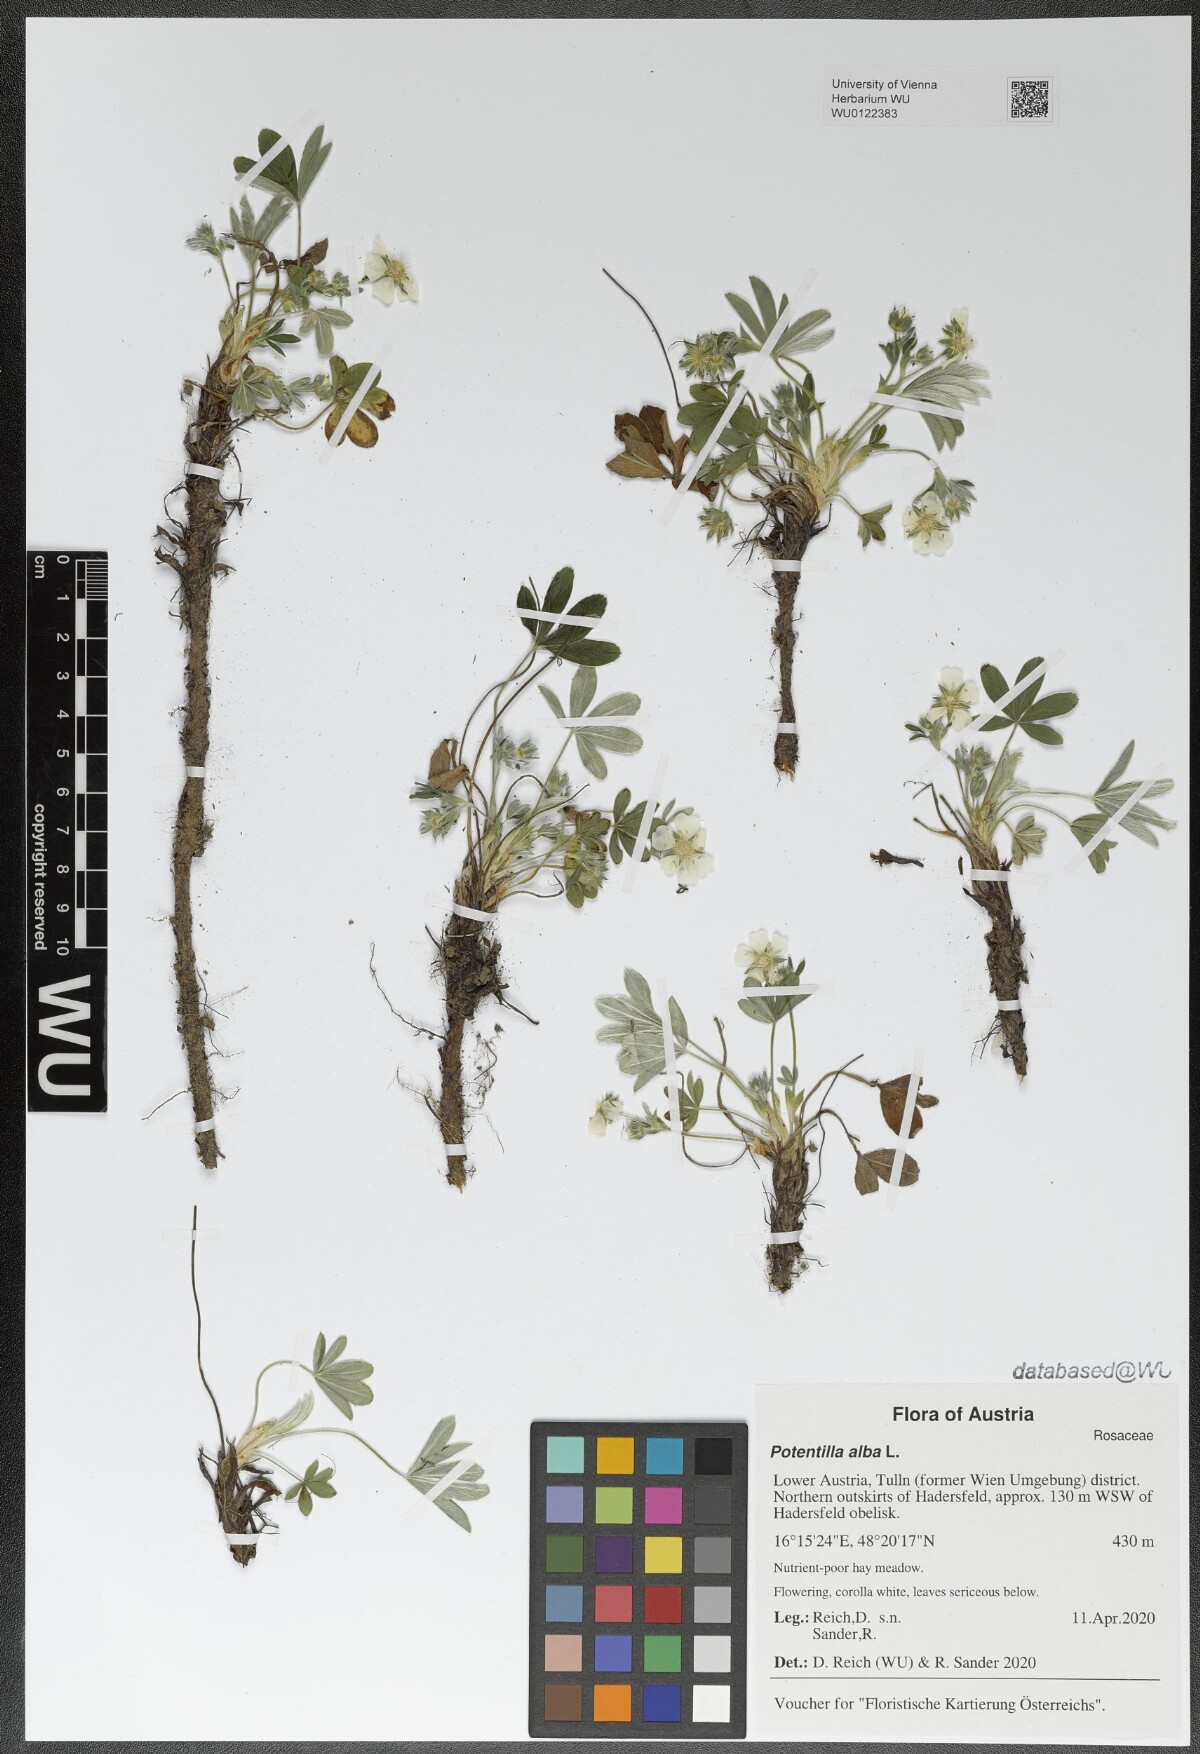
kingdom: Plantae
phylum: Tracheophyta
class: Magnoliopsida
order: Rosales
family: Rosaceae
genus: Potentilla
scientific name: Potentilla alba
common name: White cinquefoil
